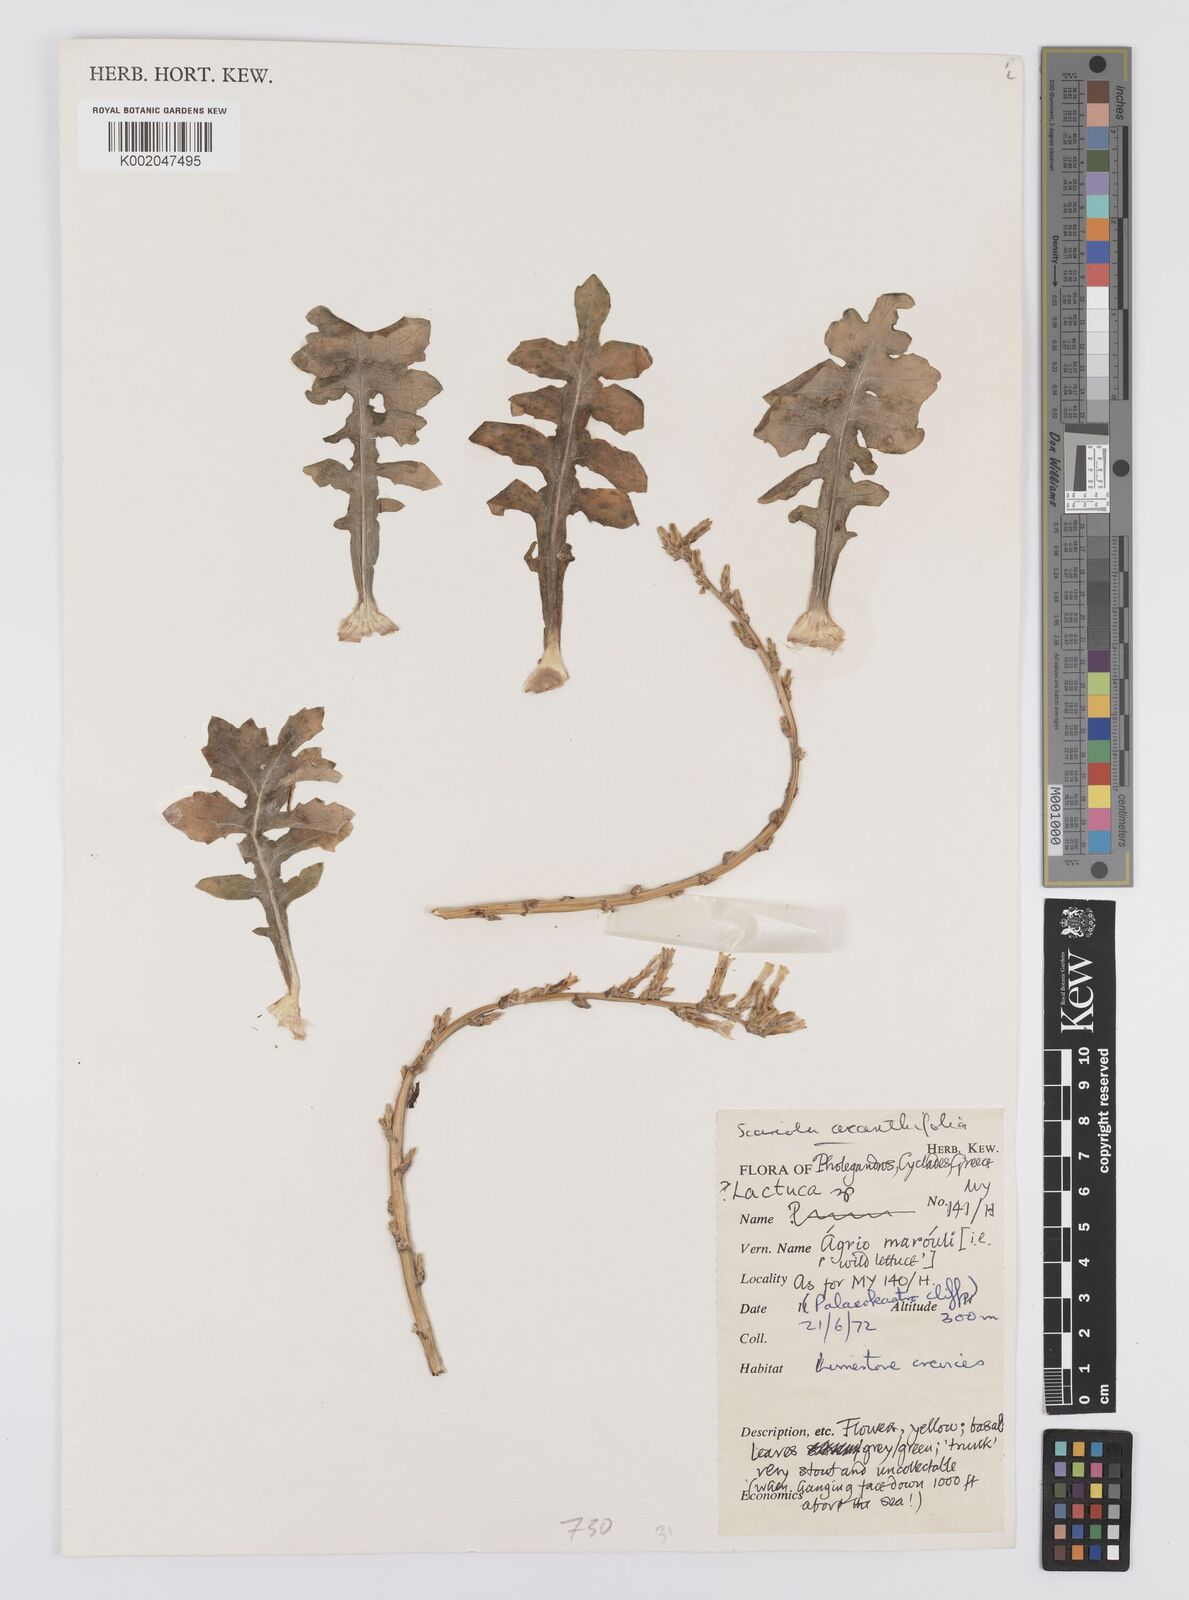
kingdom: Plantae
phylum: Tracheophyta
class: Magnoliopsida
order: Asterales
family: Asteraceae
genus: Lactuca
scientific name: Lactuca acanthifolia
